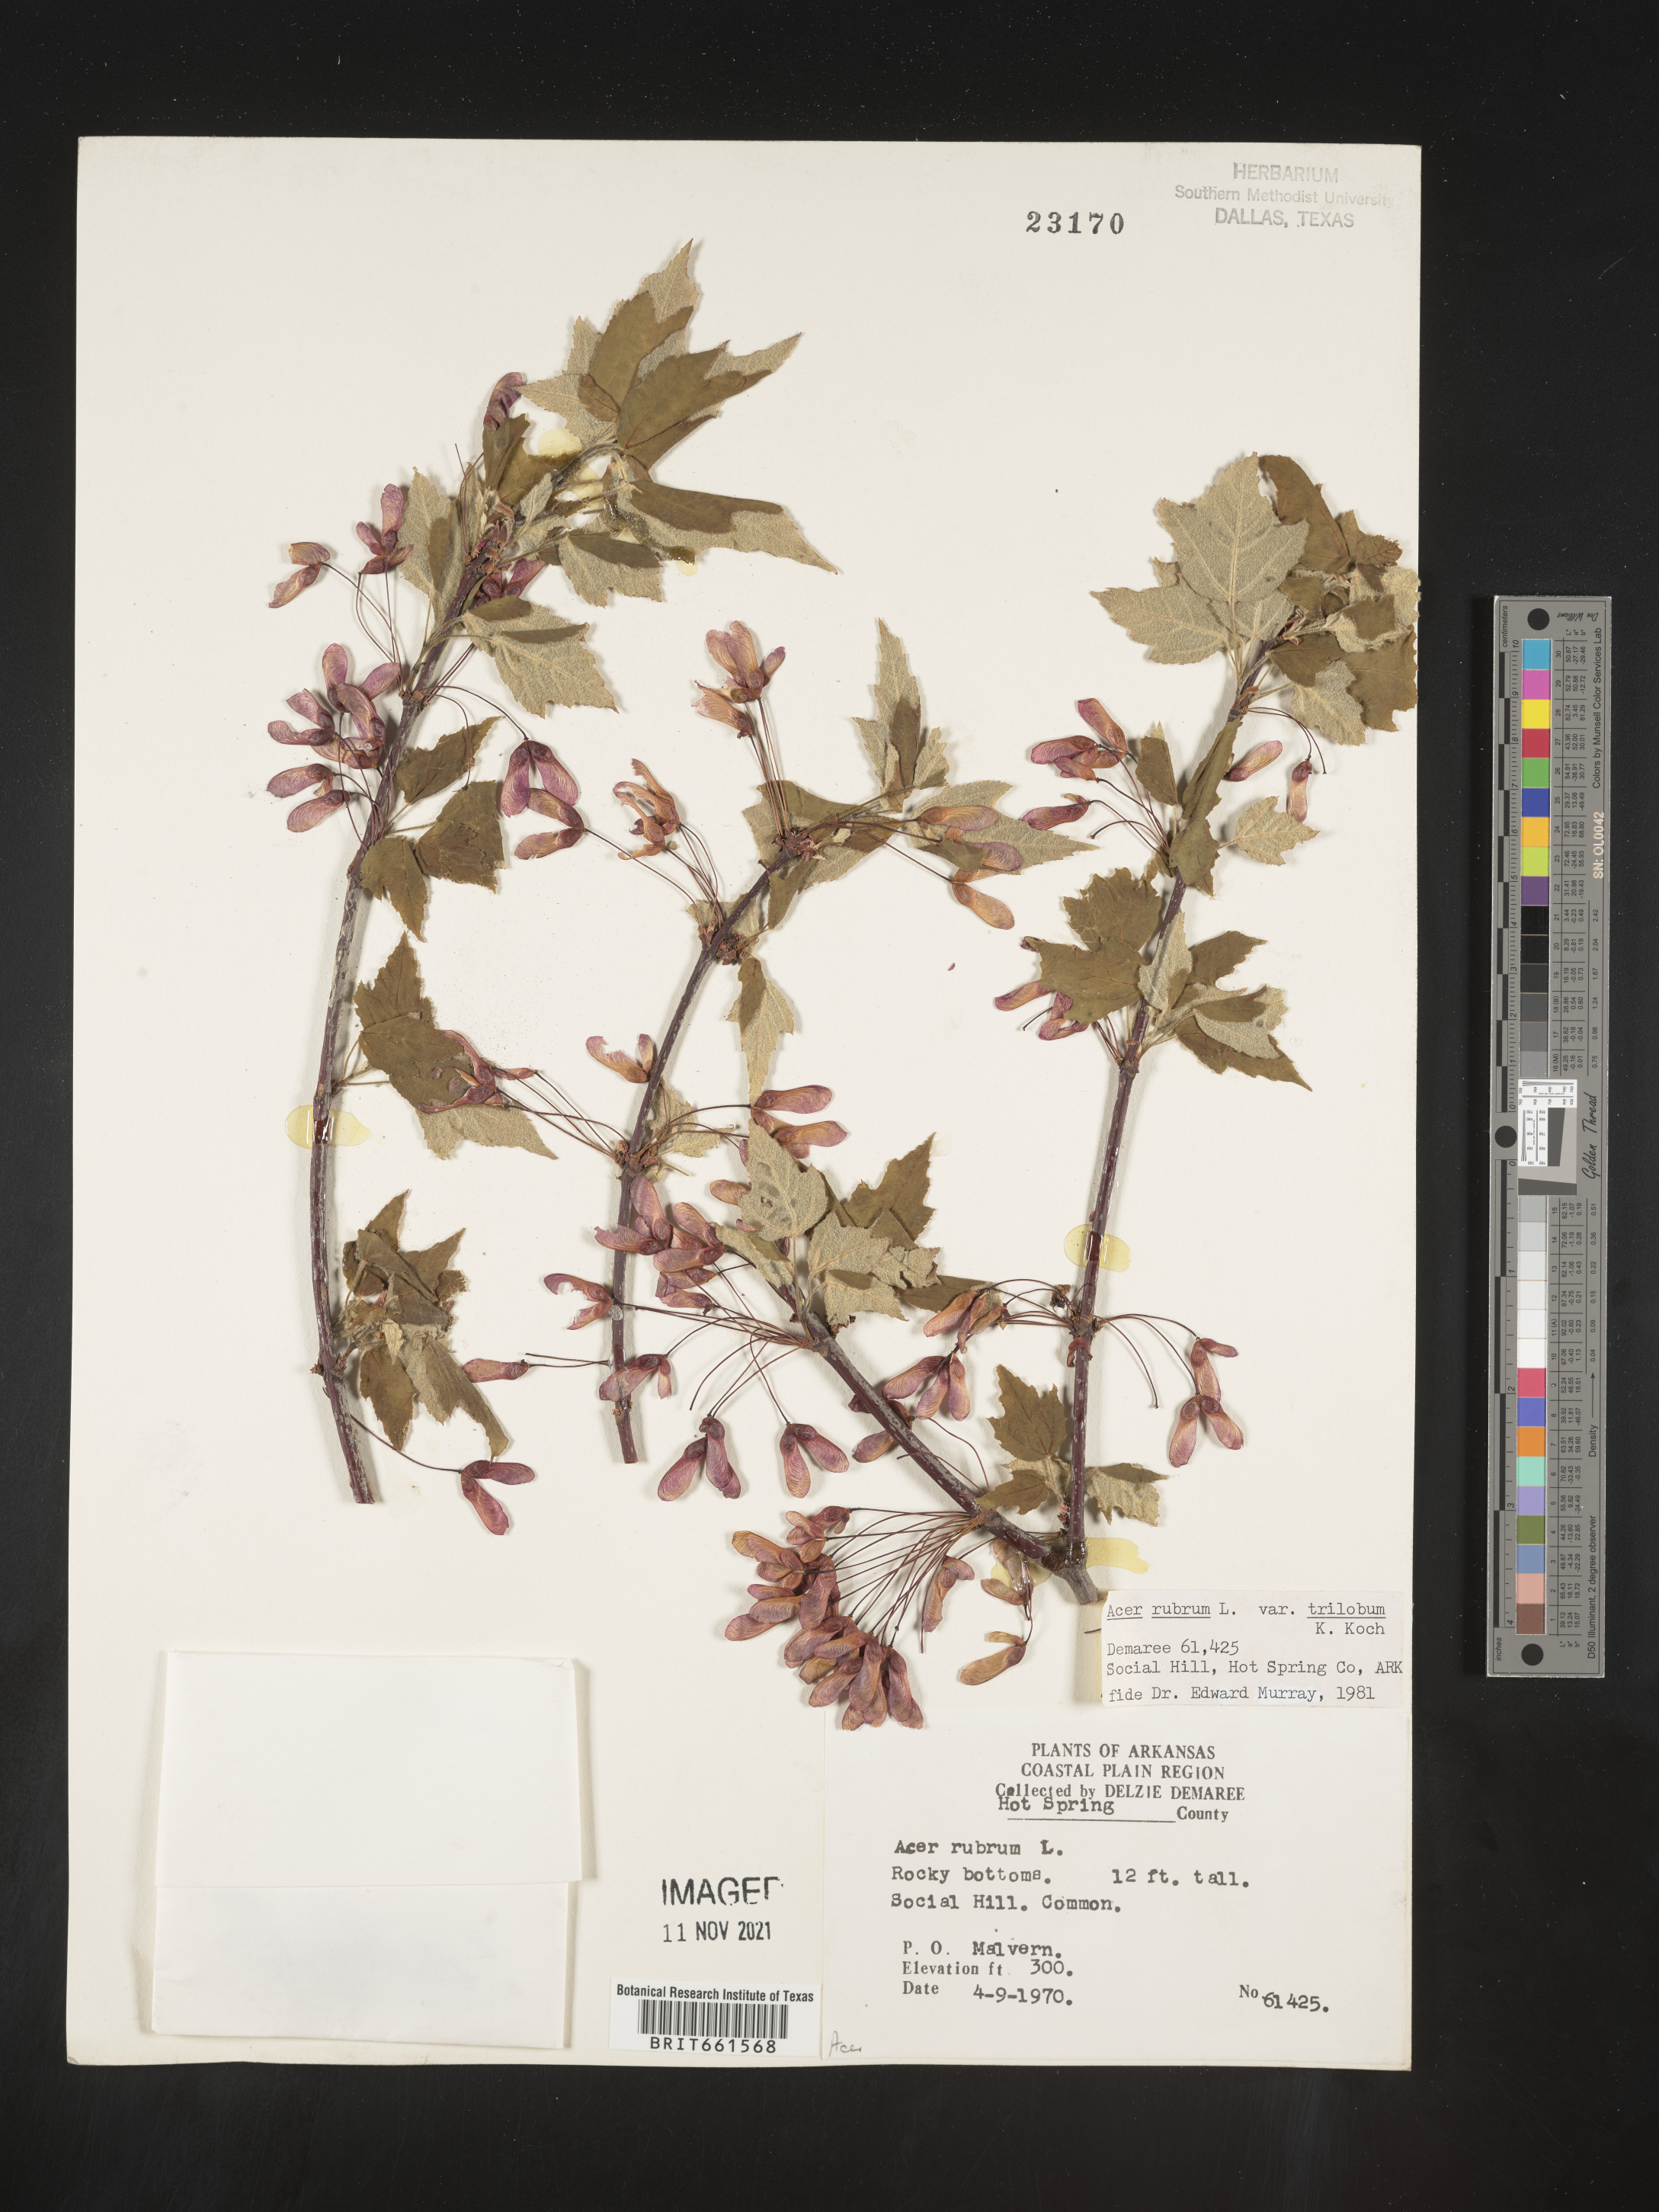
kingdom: Plantae
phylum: Tracheophyta
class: Magnoliopsida
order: Sapindales
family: Sapindaceae
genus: Acer
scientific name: Acer rubrum
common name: Red maple
